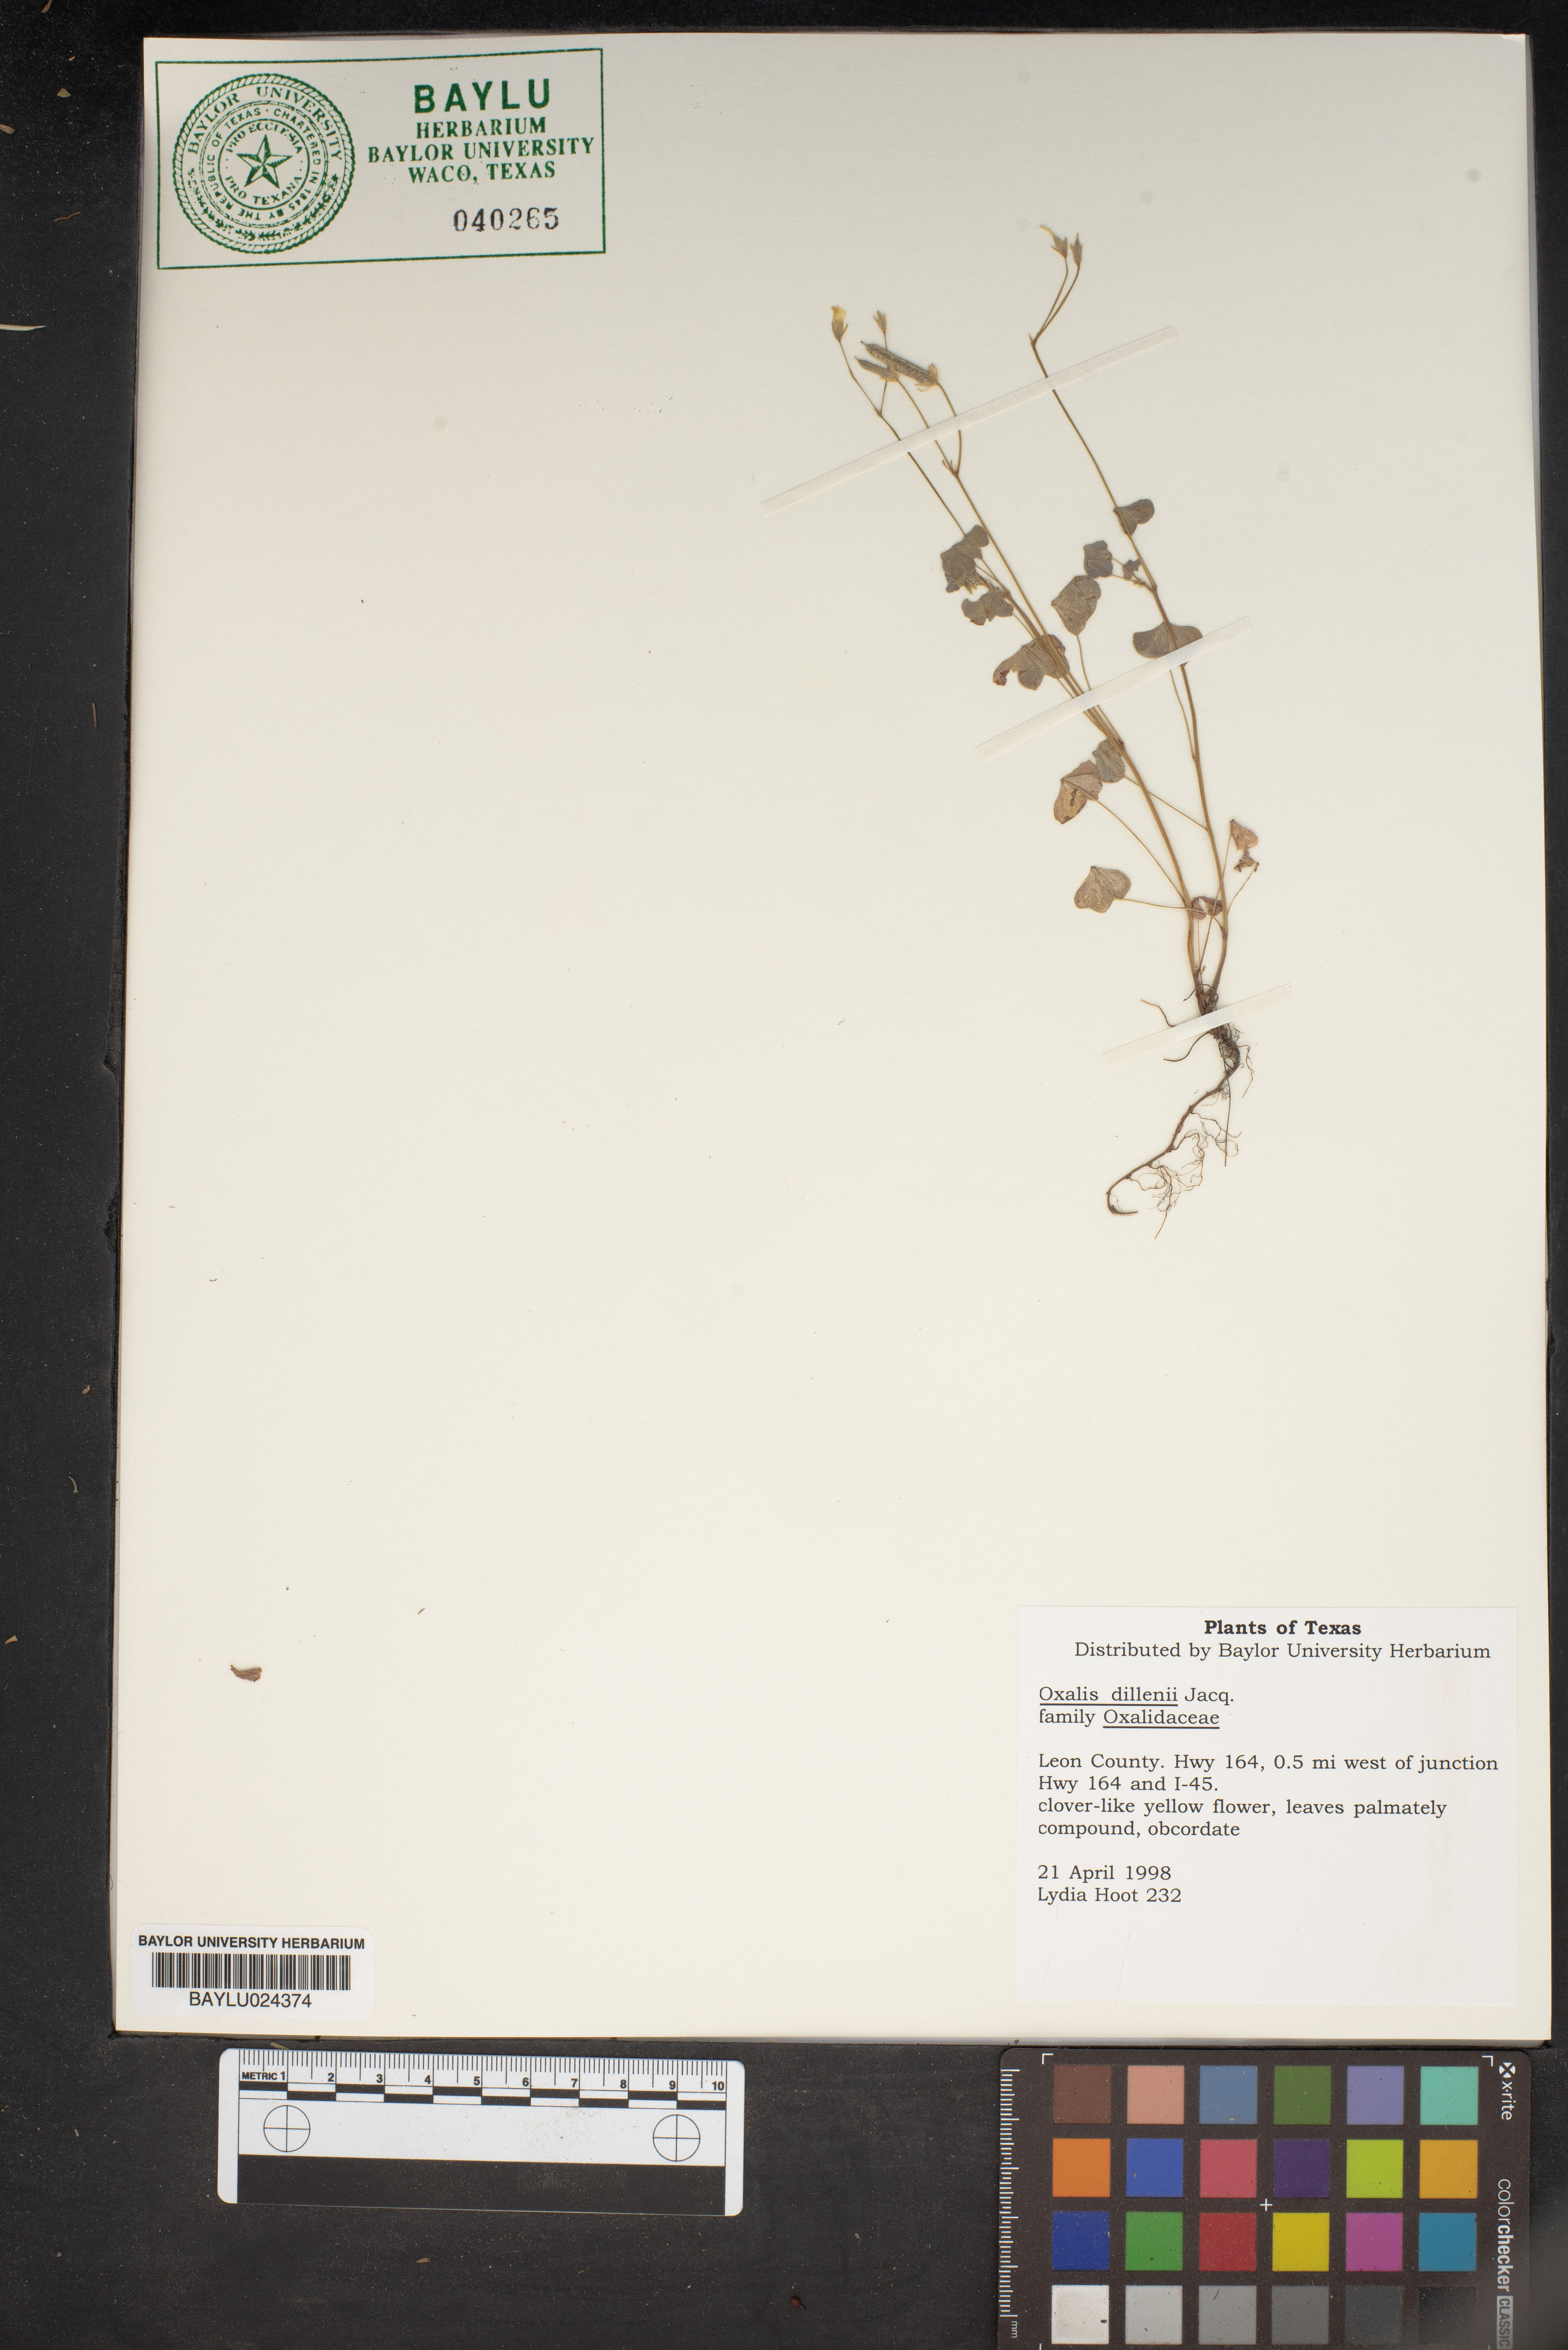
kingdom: Plantae
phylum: Tracheophyta
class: Magnoliopsida
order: Oxalidales
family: Oxalidaceae
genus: Oxalis
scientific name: Oxalis dillenii
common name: Sussex yellow-sorrel
